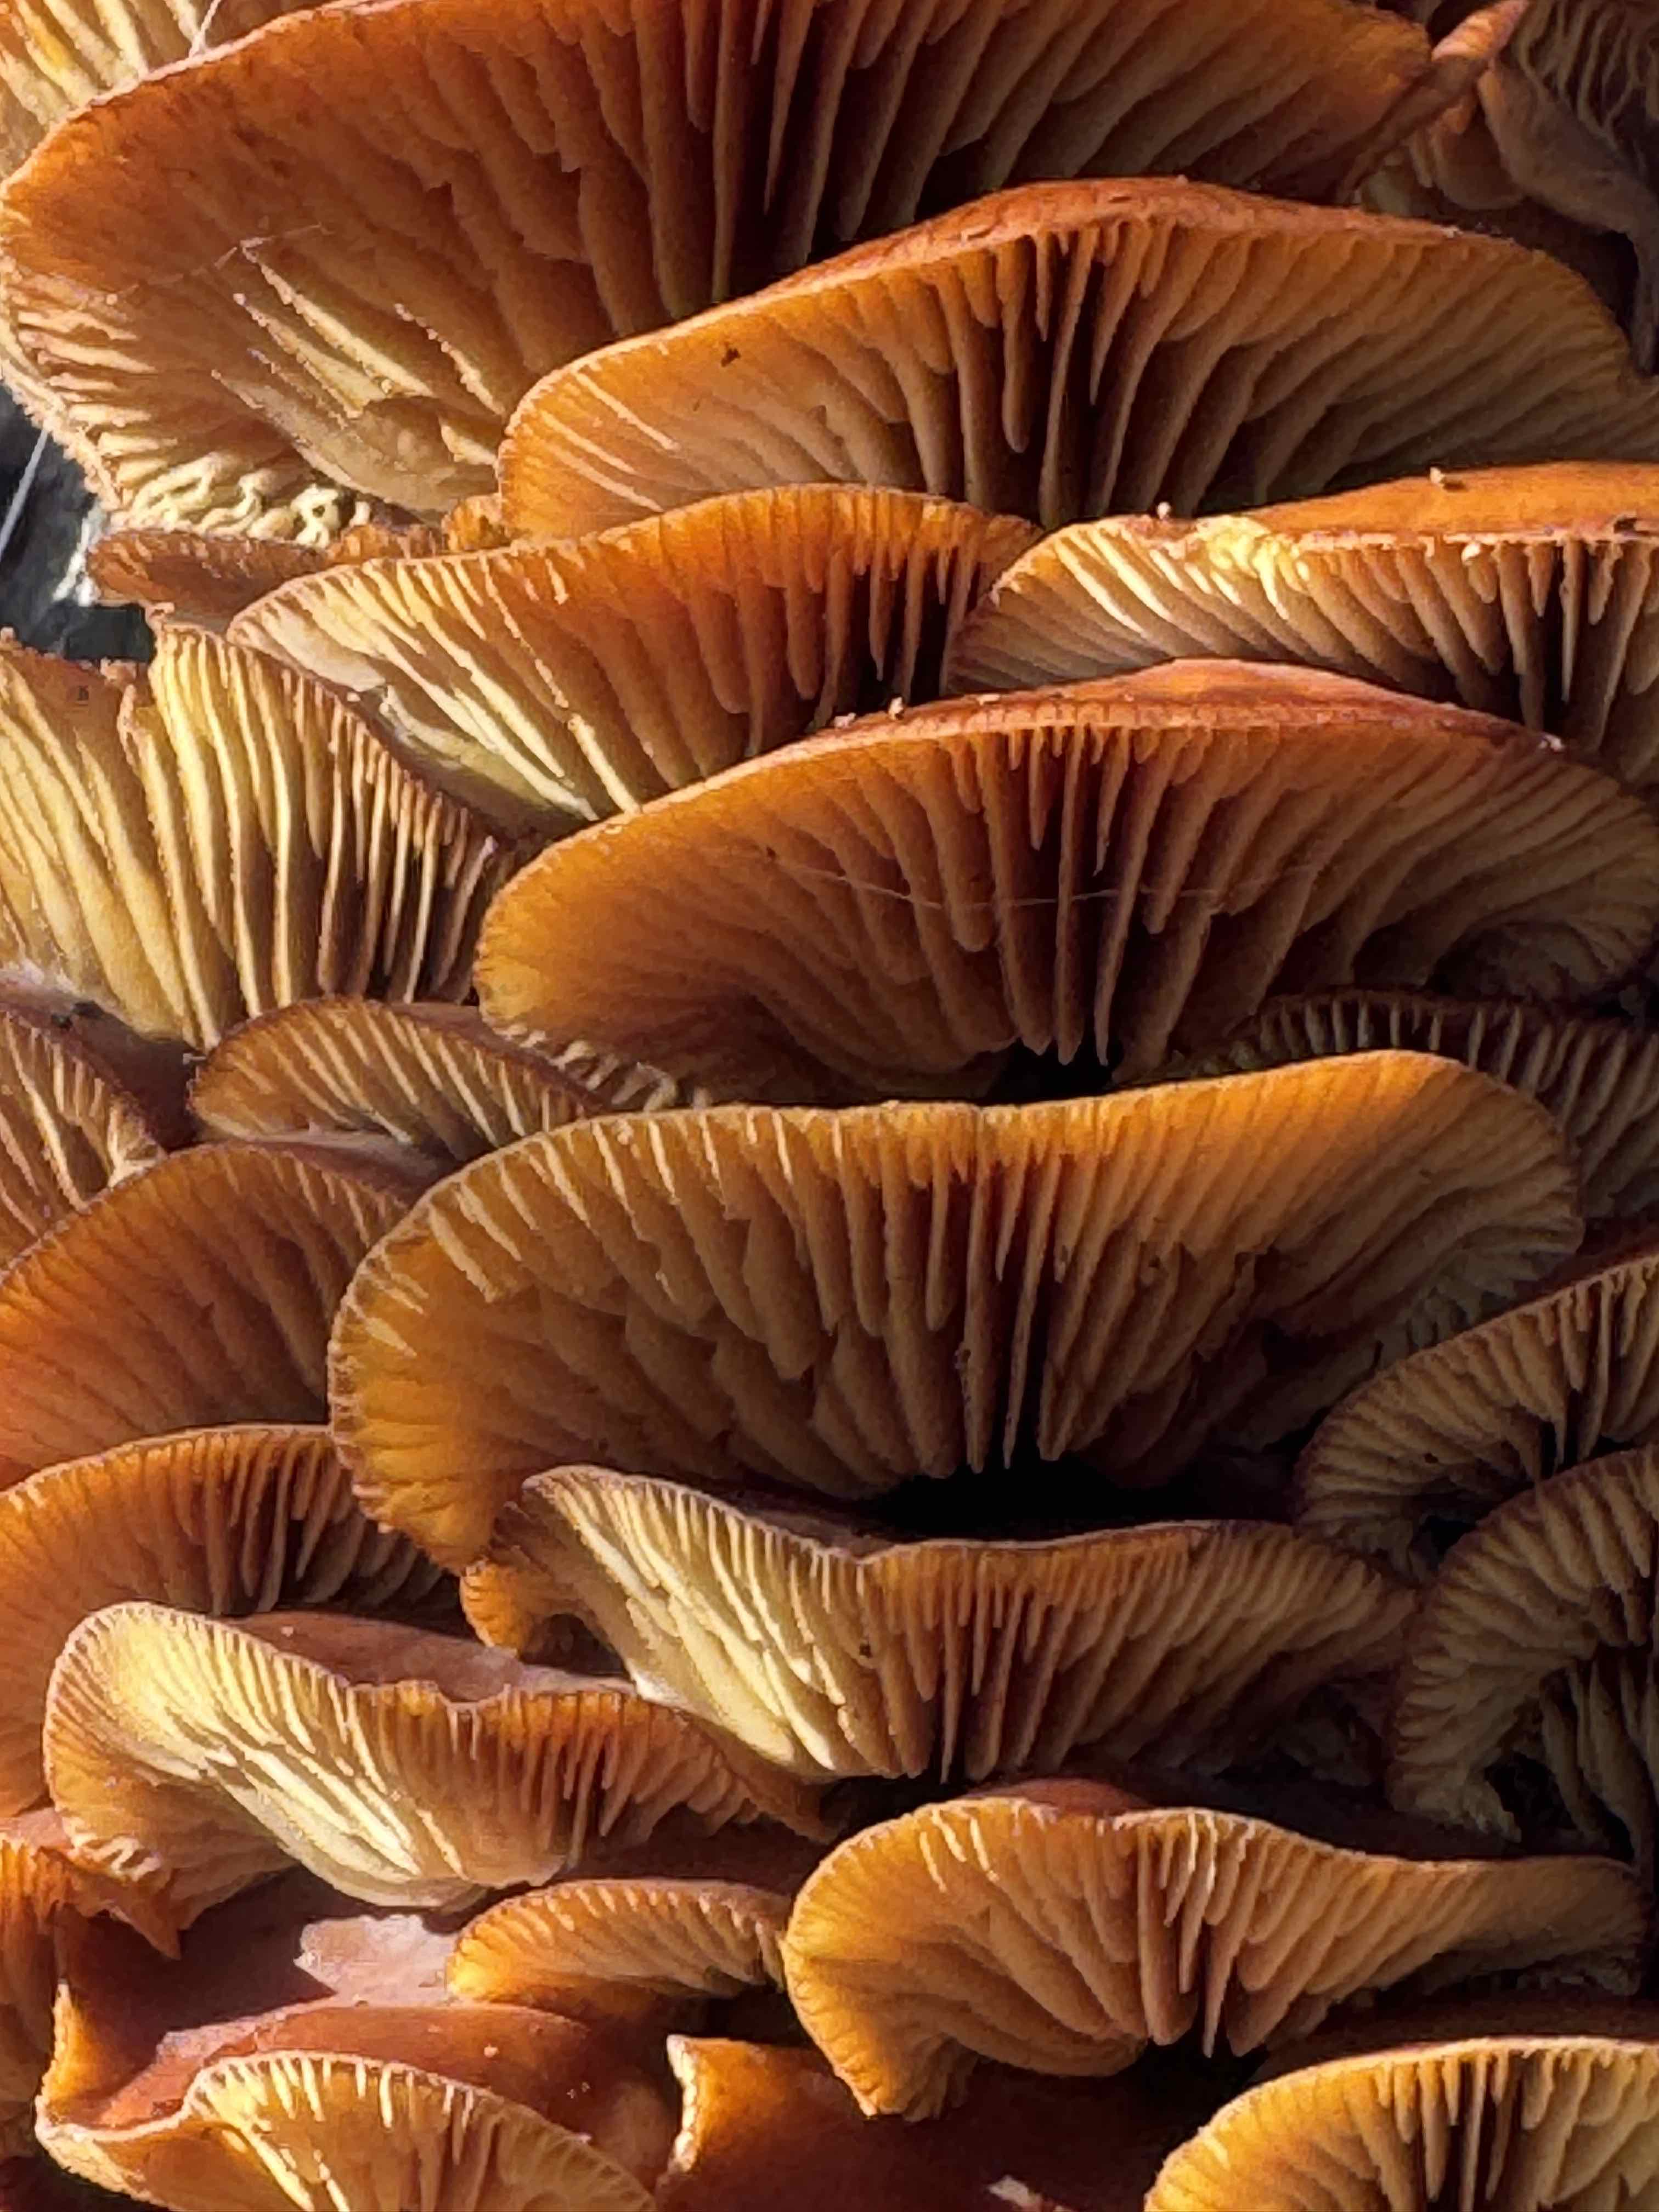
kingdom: Fungi
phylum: Basidiomycota
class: Agaricomycetes
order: Agaricales
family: Physalacriaceae
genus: Flammulina
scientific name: Flammulina velutipes
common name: gul fløjlsfod
